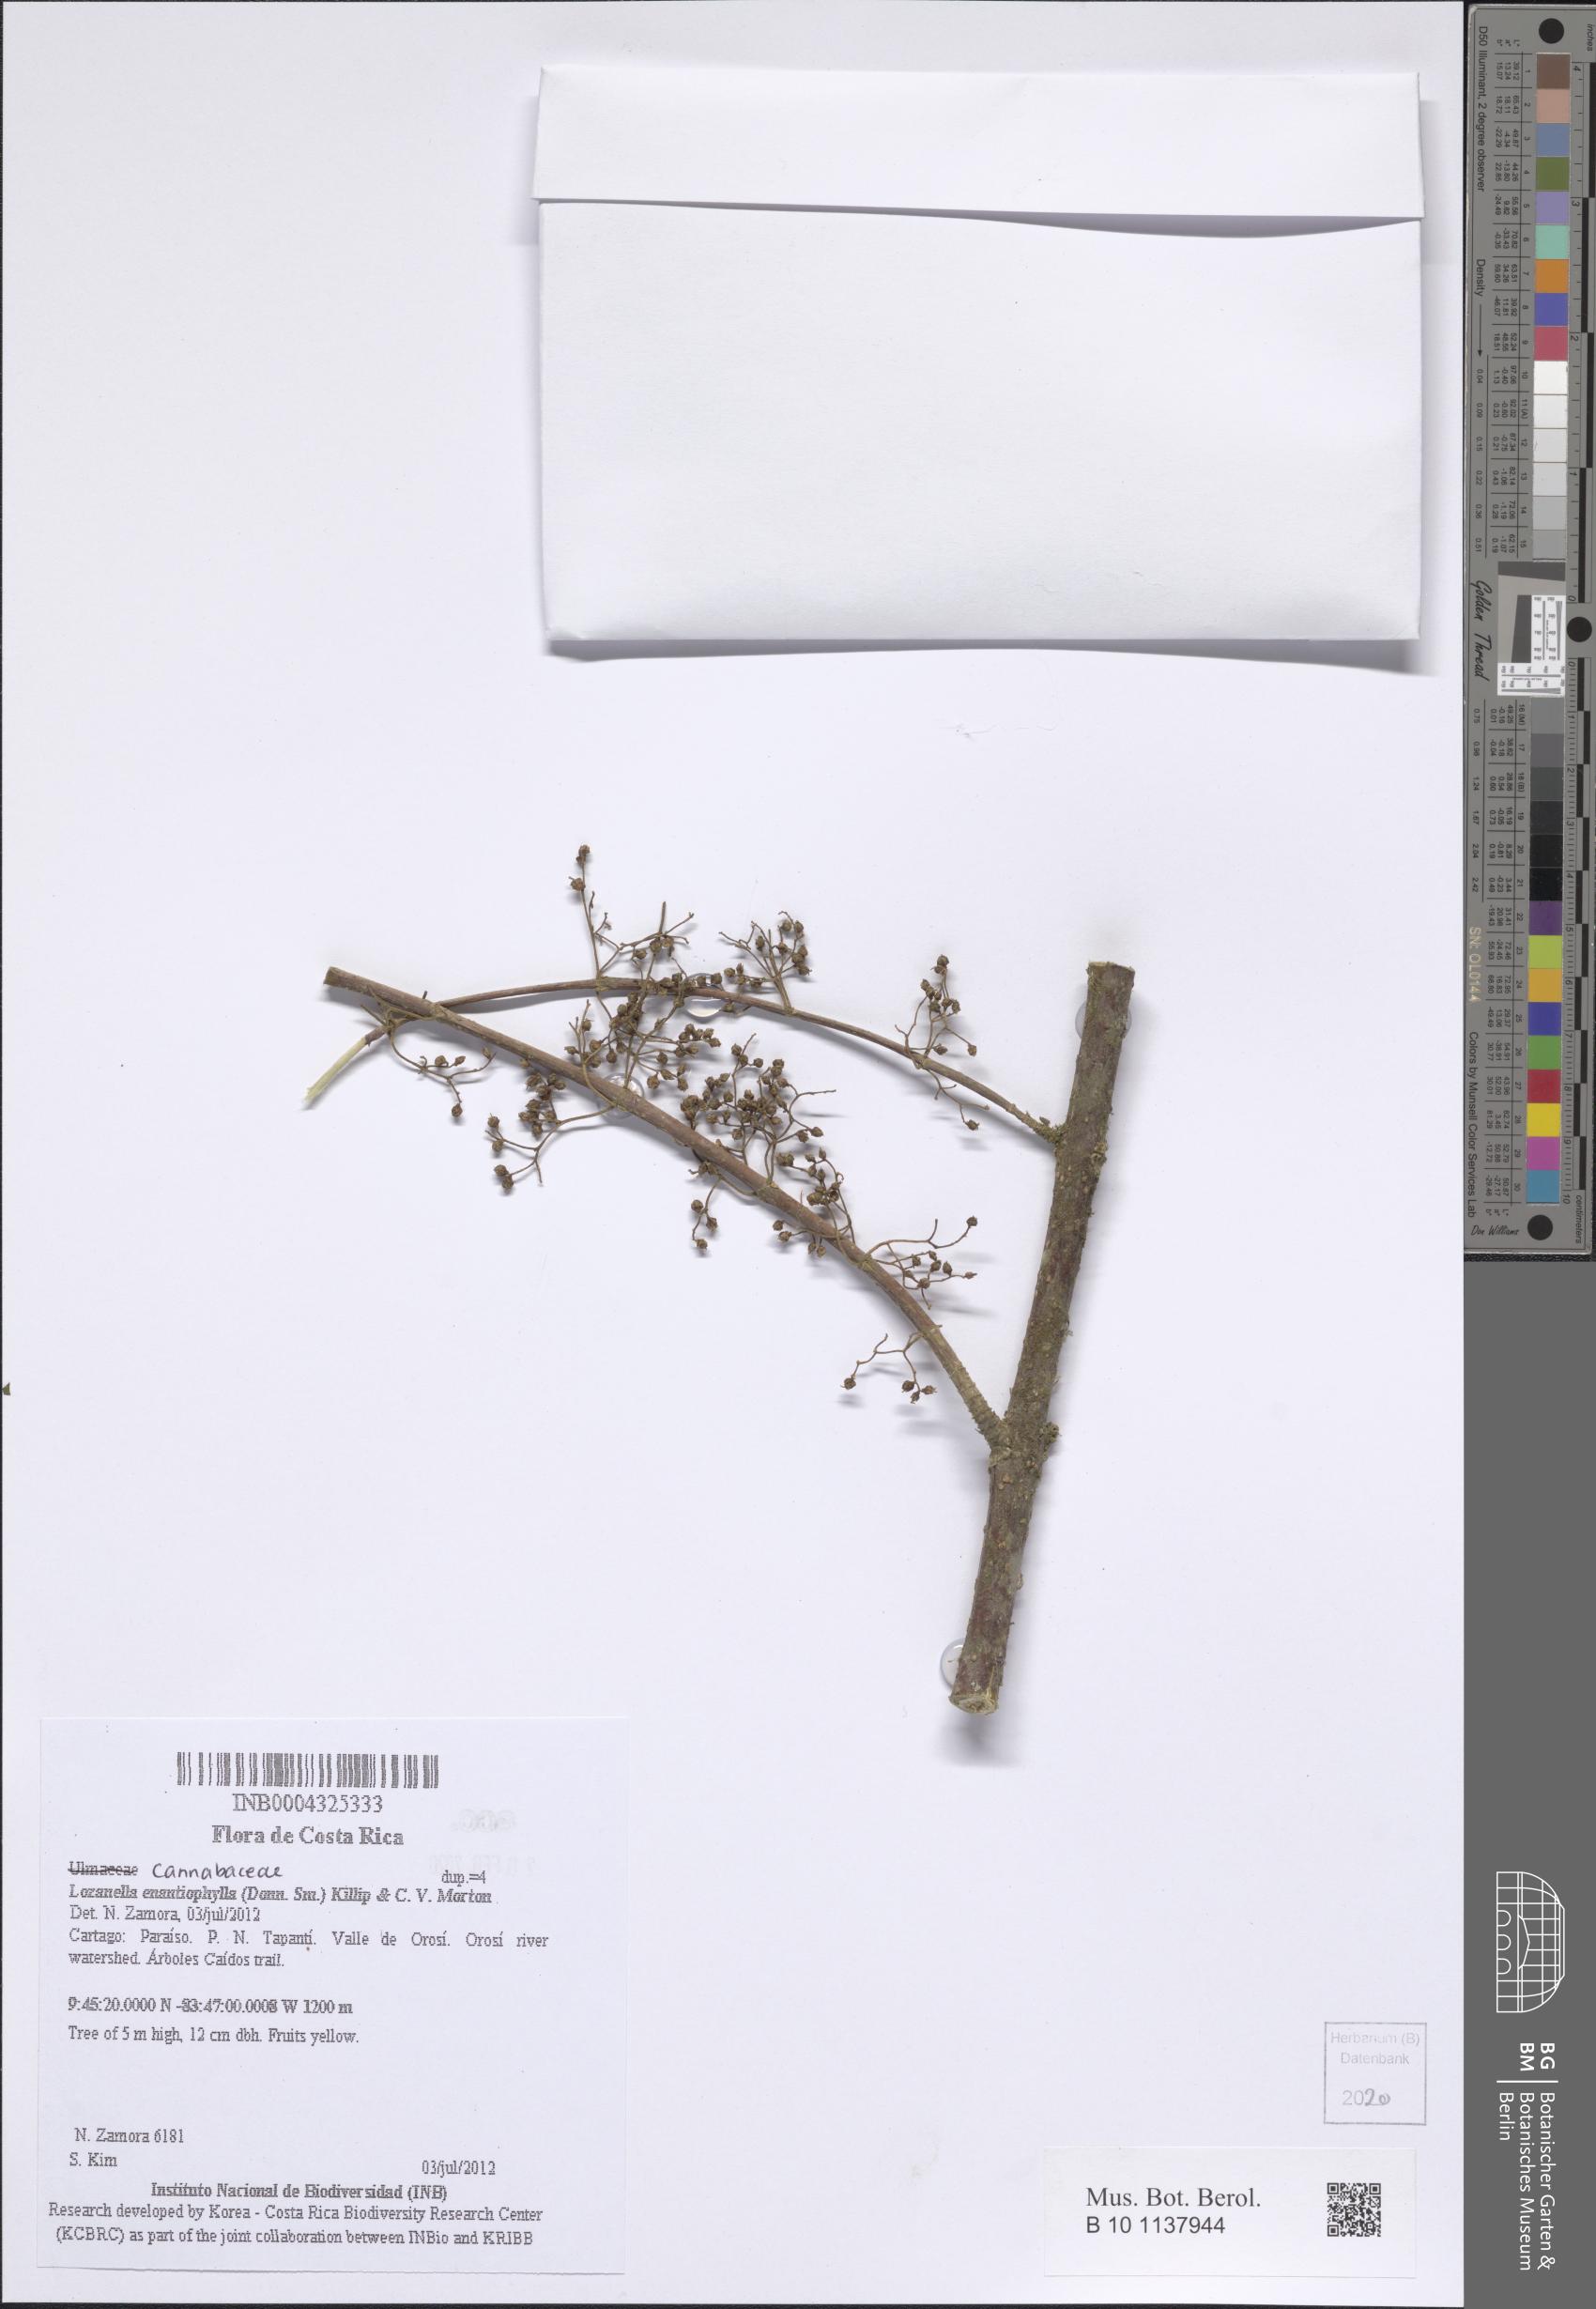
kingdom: Plantae
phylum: Tracheophyta
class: Magnoliopsida
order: Rosales
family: Cannabaceae
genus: Lozanella
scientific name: Lozanella enantiophylla
